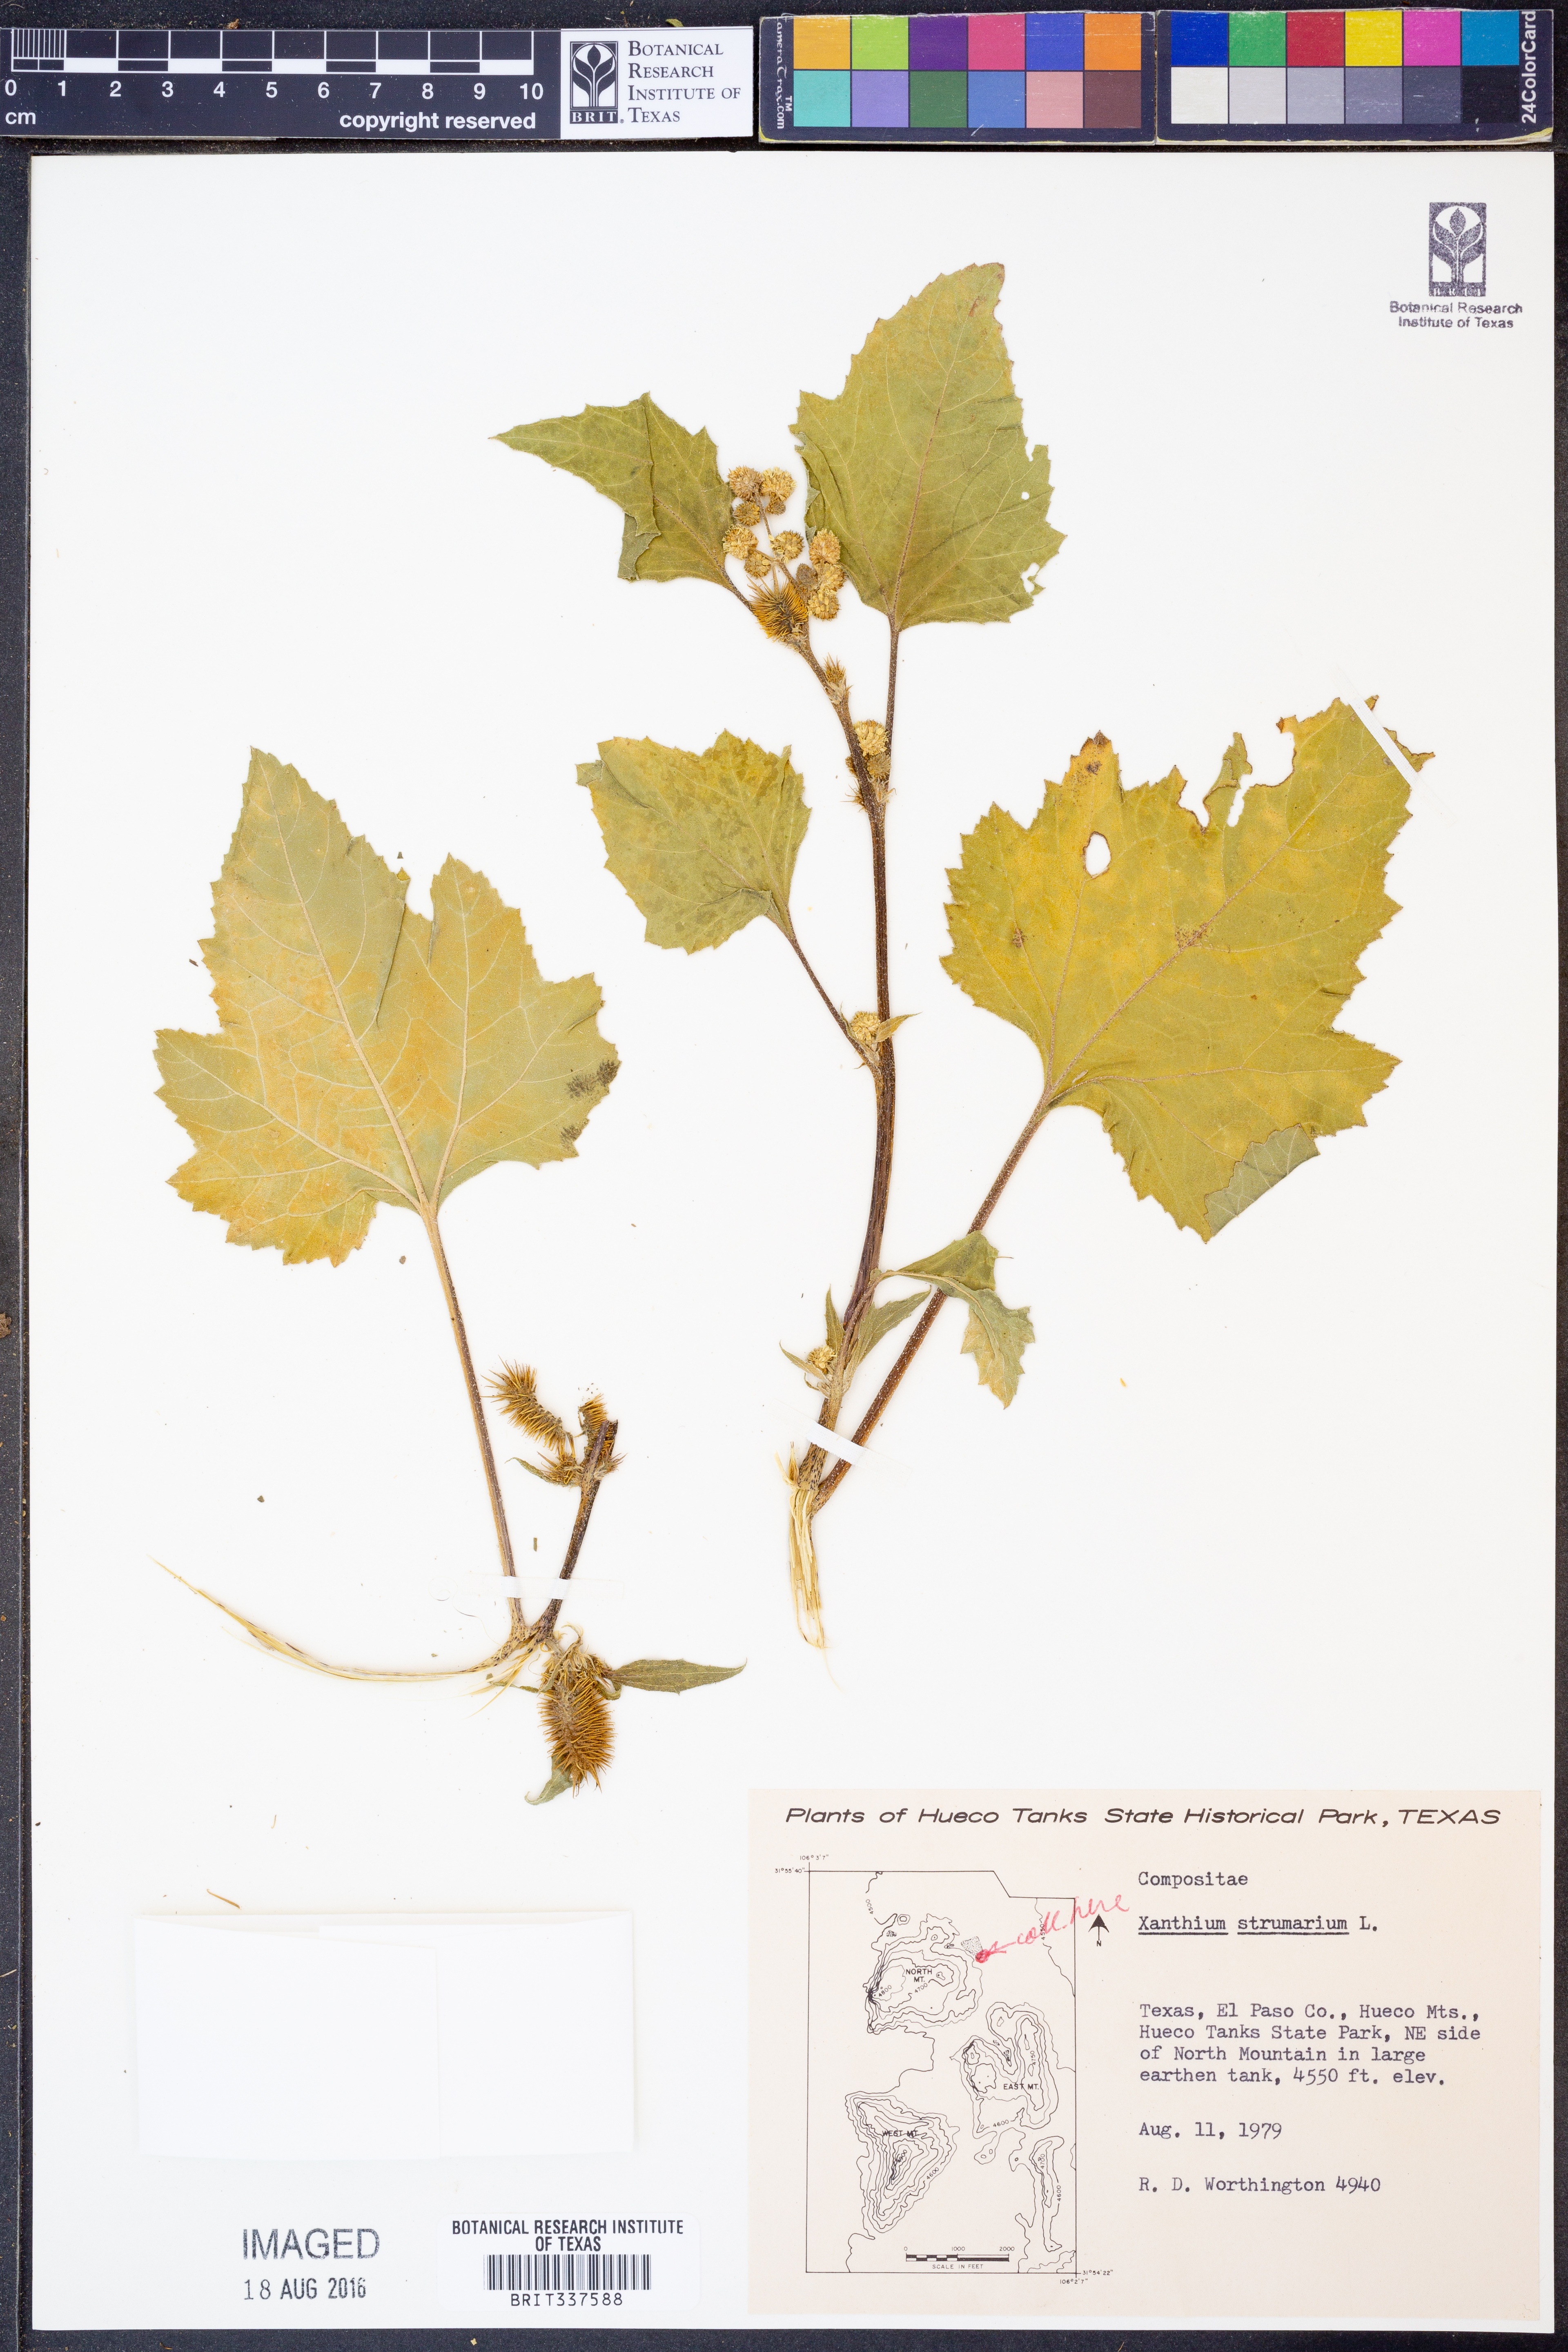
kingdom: Plantae
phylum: Tracheophyta
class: Magnoliopsida
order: Asterales
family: Asteraceae
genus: Xanthium
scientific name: Xanthium orientale
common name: Californian burr
